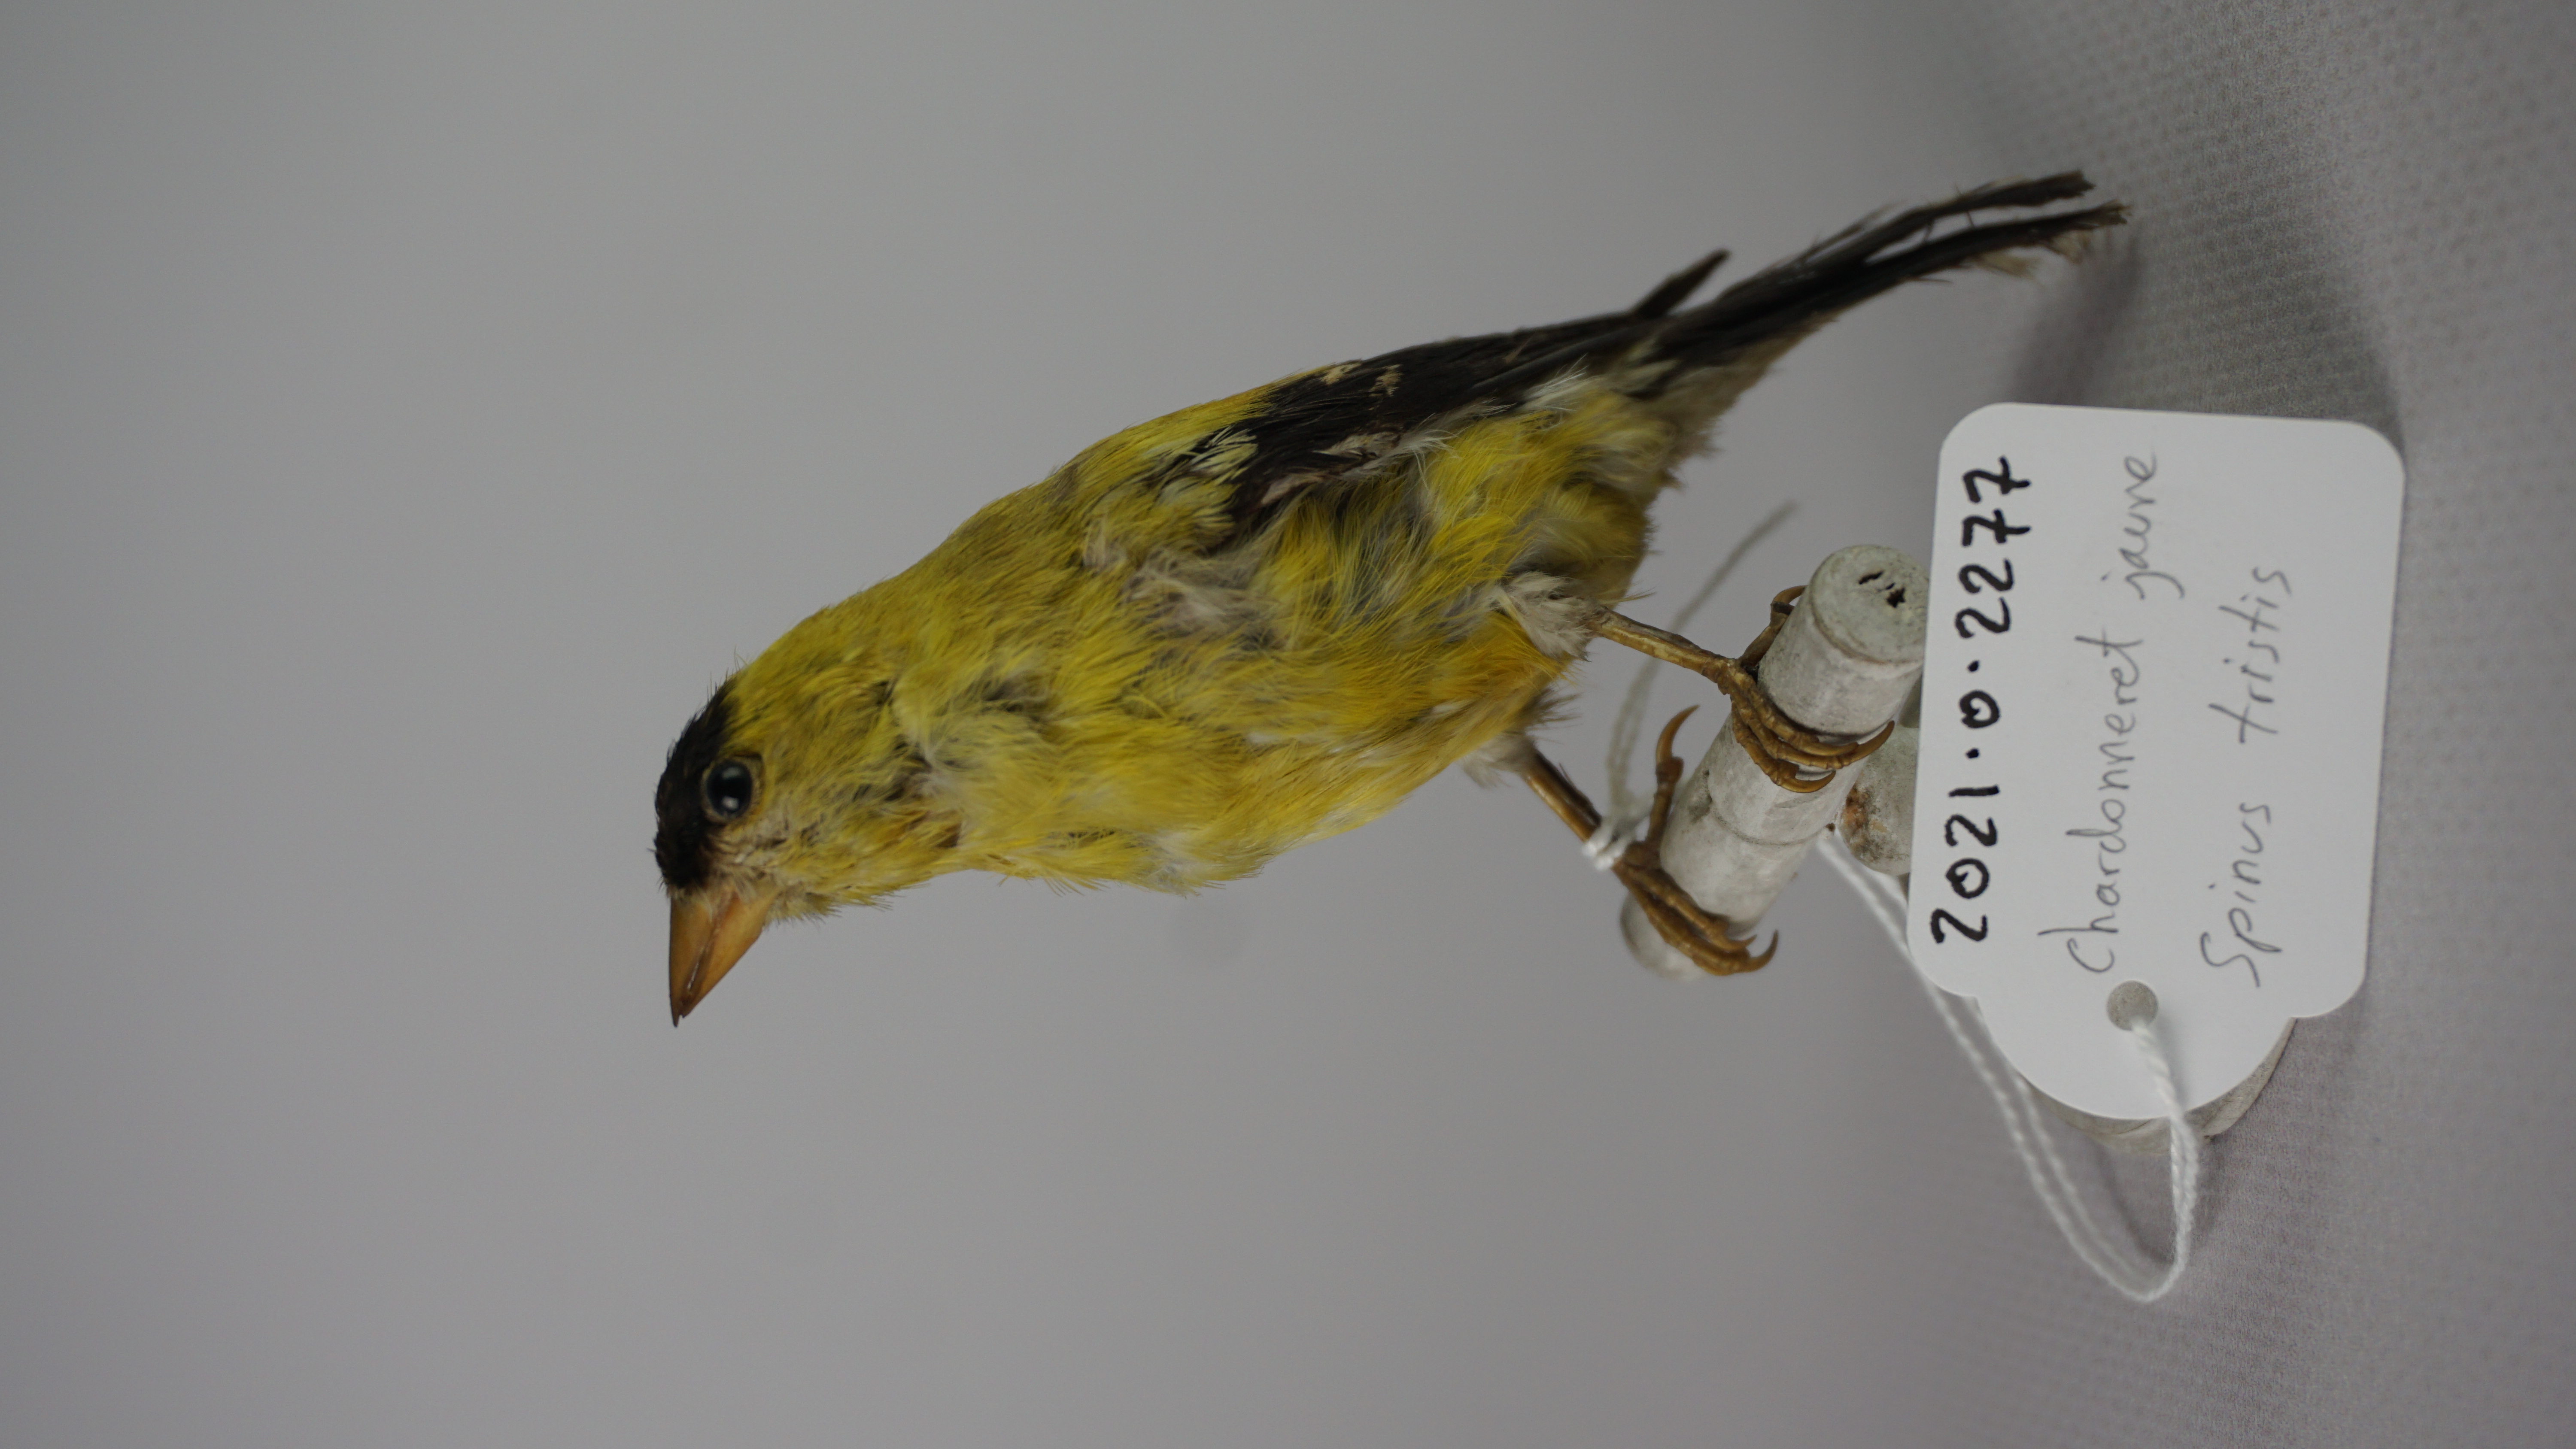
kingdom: Animalia
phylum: Chordata
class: Aves
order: Passeriformes
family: Fringillidae
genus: Spinus
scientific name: Spinus tristis
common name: American goldfinch
